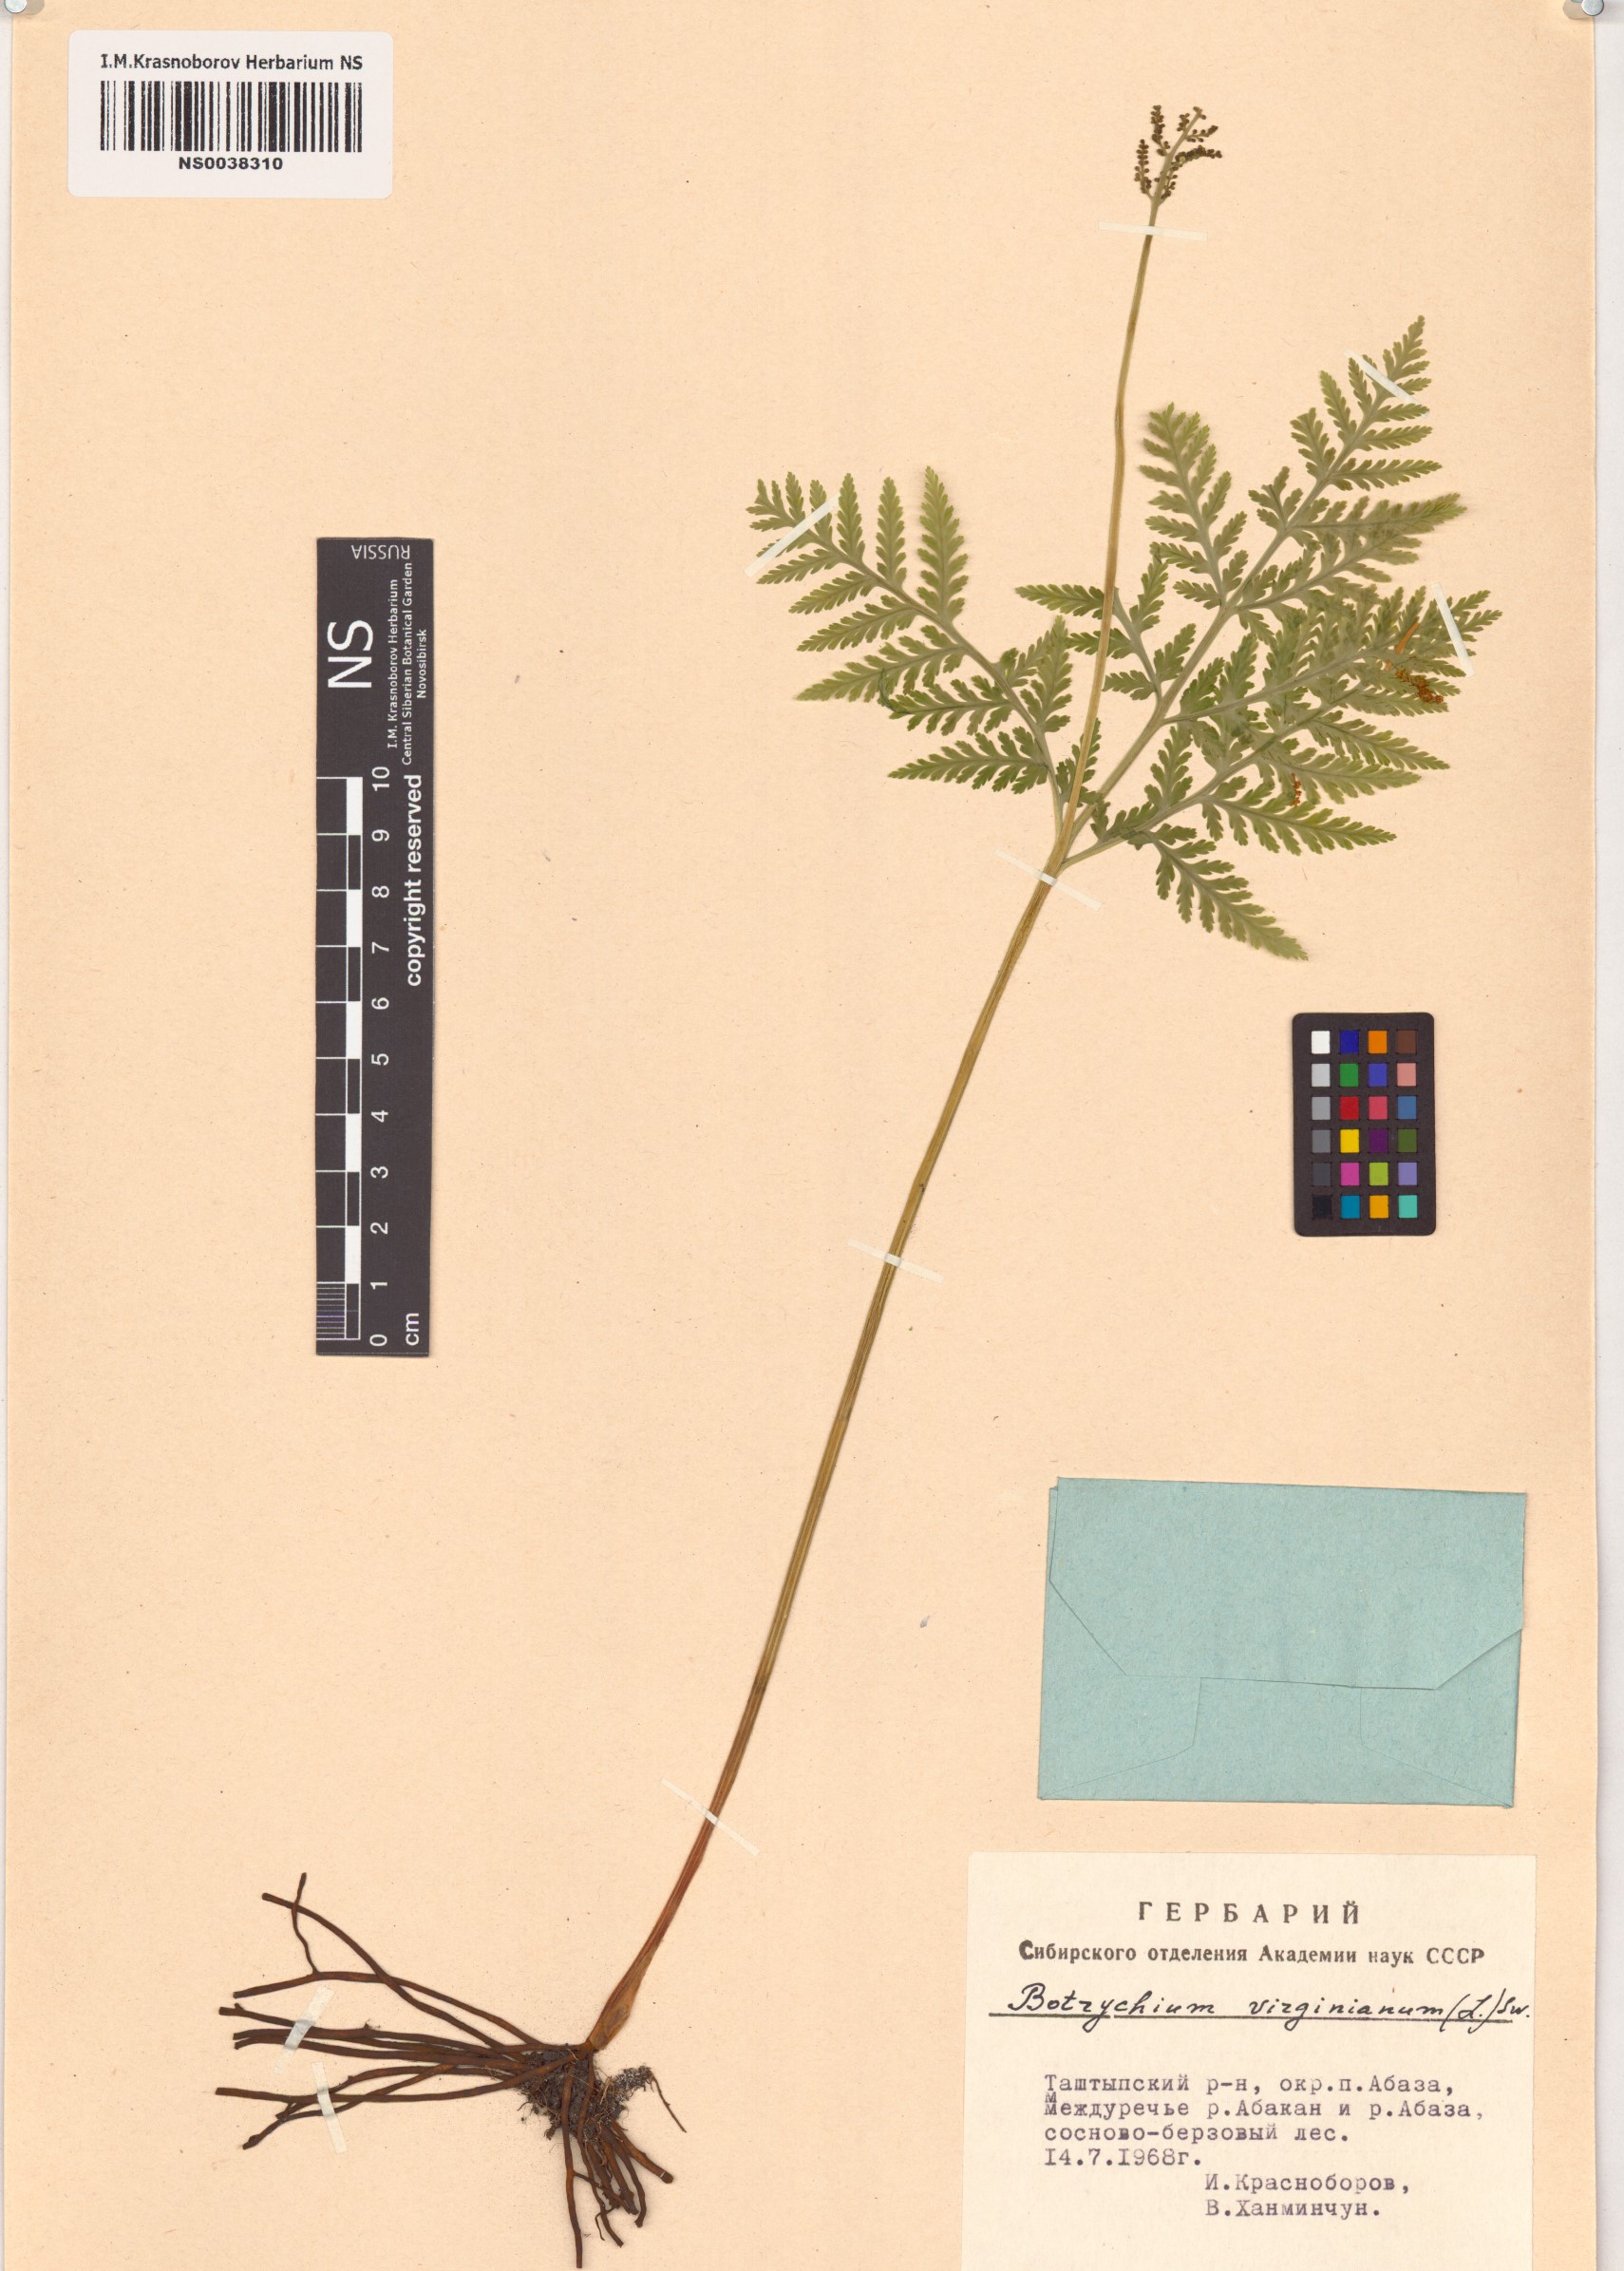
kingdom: Plantae
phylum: Tracheophyta
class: Polypodiopsida
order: Ophioglossales
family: Ophioglossaceae
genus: Botrypus
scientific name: Botrypus virginianus
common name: Common grapefern
